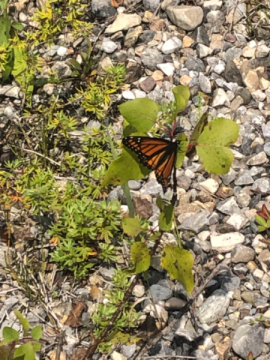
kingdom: Animalia
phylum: Arthropoda
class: Insecta
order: Lepidoptera
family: Nymphalidae
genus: Limenitis
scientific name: Limenitis archippus
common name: Viceroy
